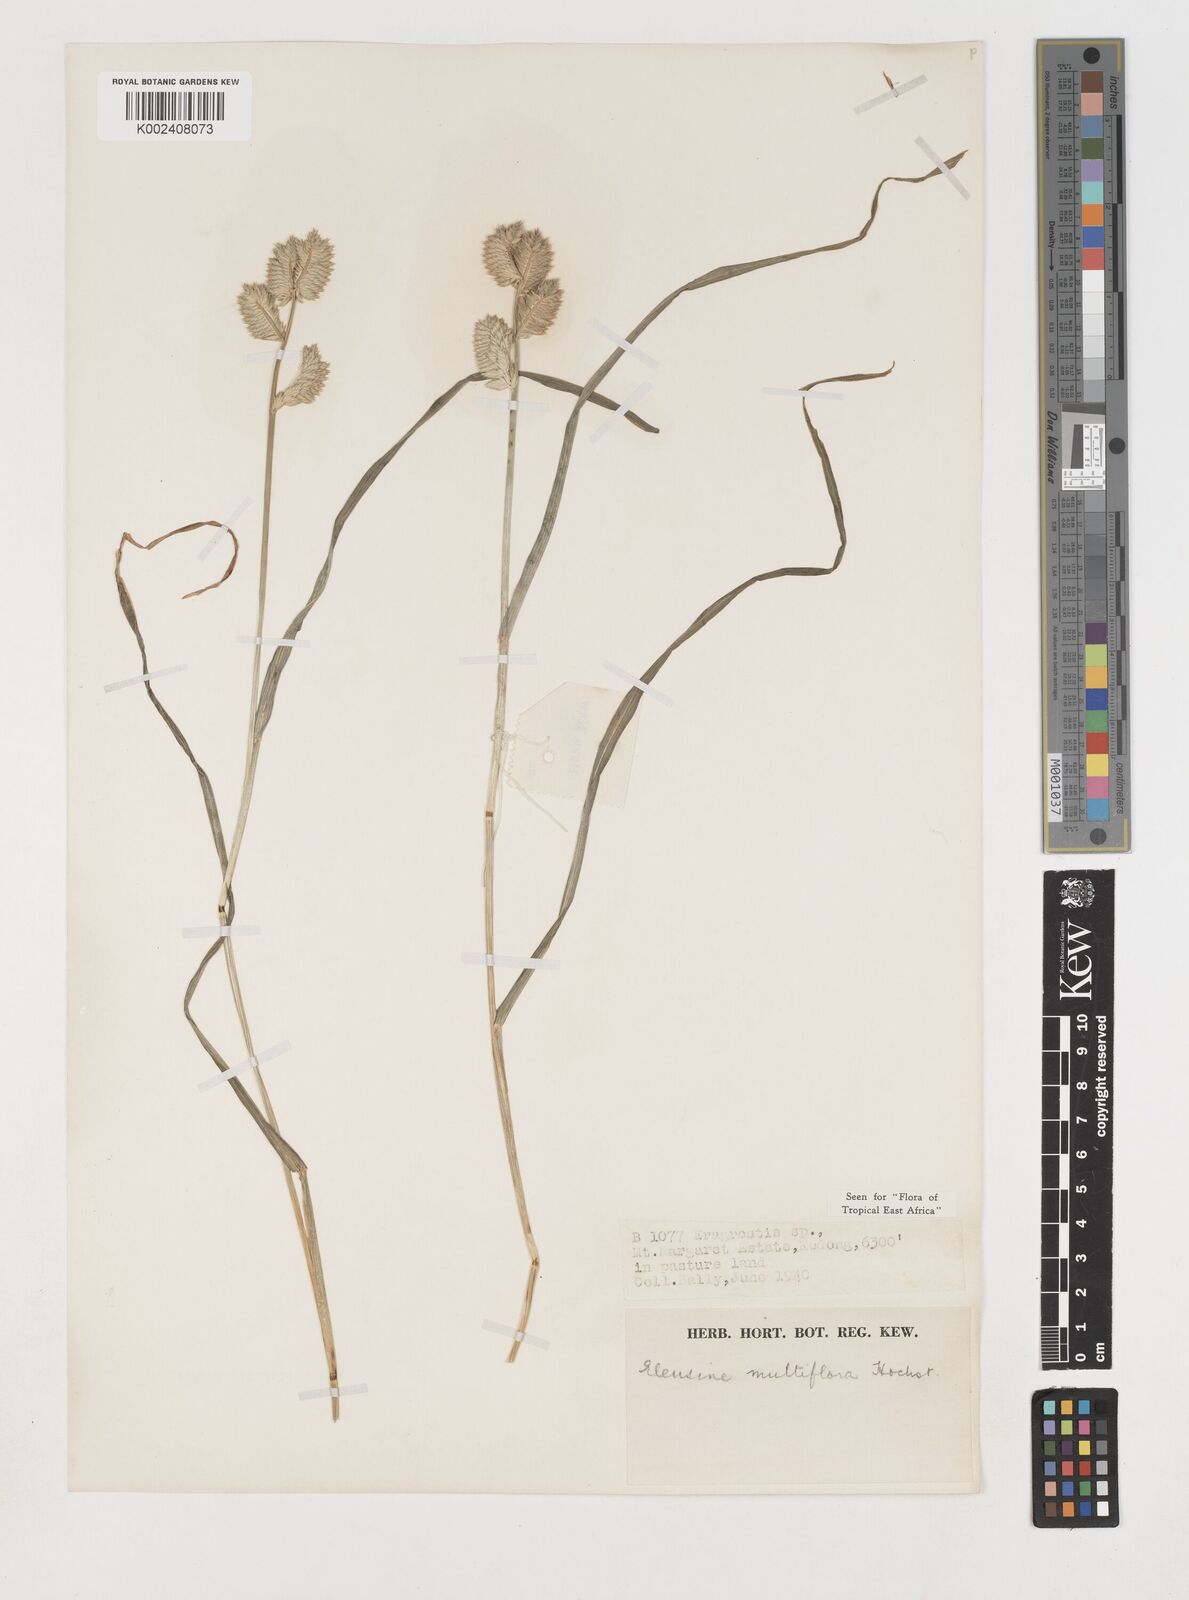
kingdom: Plantae
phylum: Tracheophyta
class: Liliopsida
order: Poales
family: Poaceae
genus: Eleusine
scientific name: Eleusine multiflora
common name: Fat-spiked yard-grass
